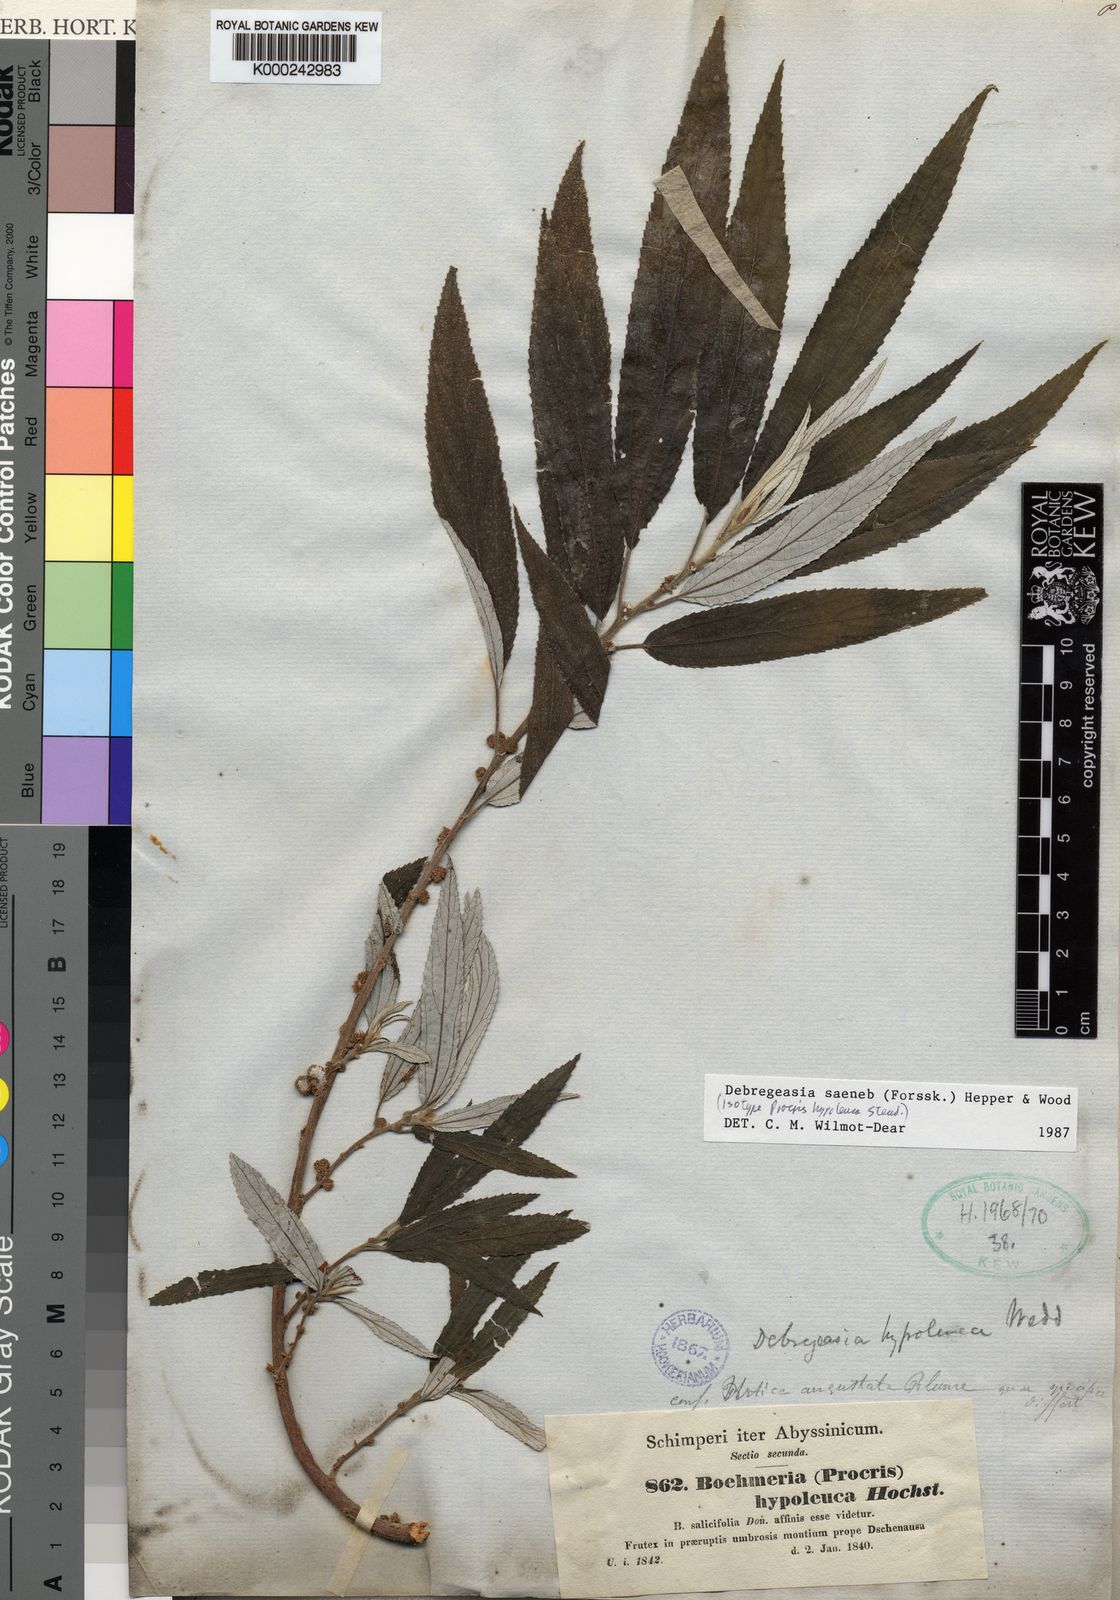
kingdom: Plantae
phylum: Tracheophyta
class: Magnoliopsida
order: Rosales
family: Urticaceae
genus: Debregeasia
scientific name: Debregeasia saeneb
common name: Himalayan wild rhea
